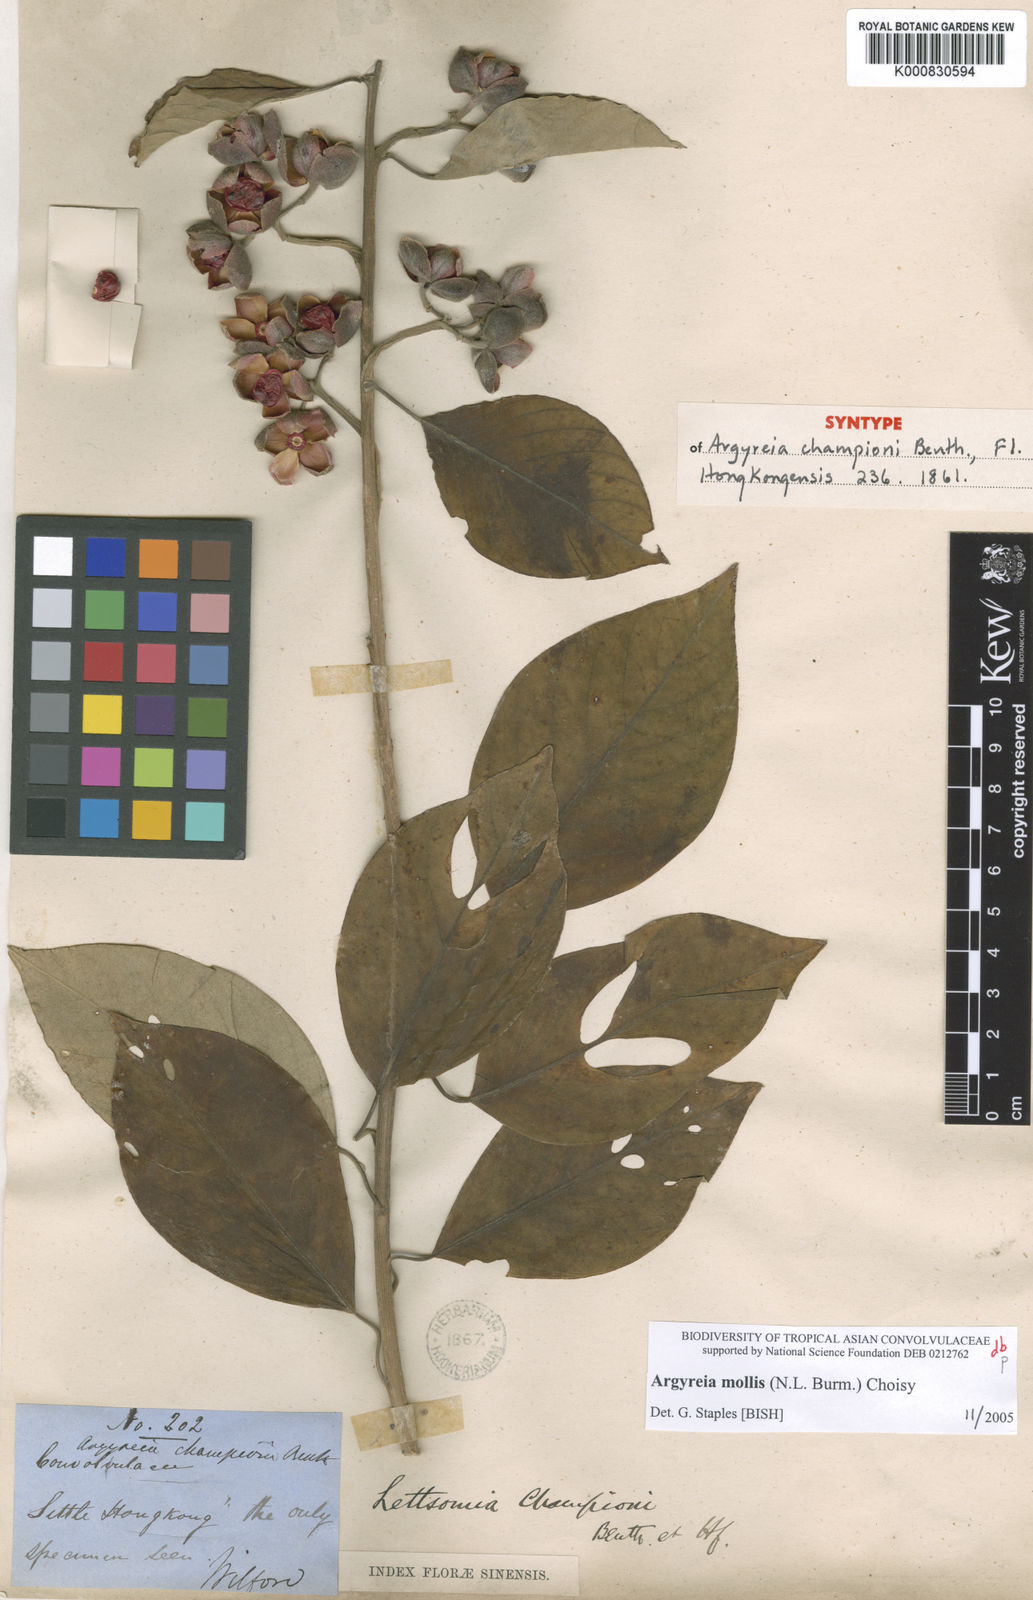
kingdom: Plantae
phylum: Tracheophyta
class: Magnoliopsida
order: Solanales
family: Convolvulaceae
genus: Argyreia
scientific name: Argyreia mollis
